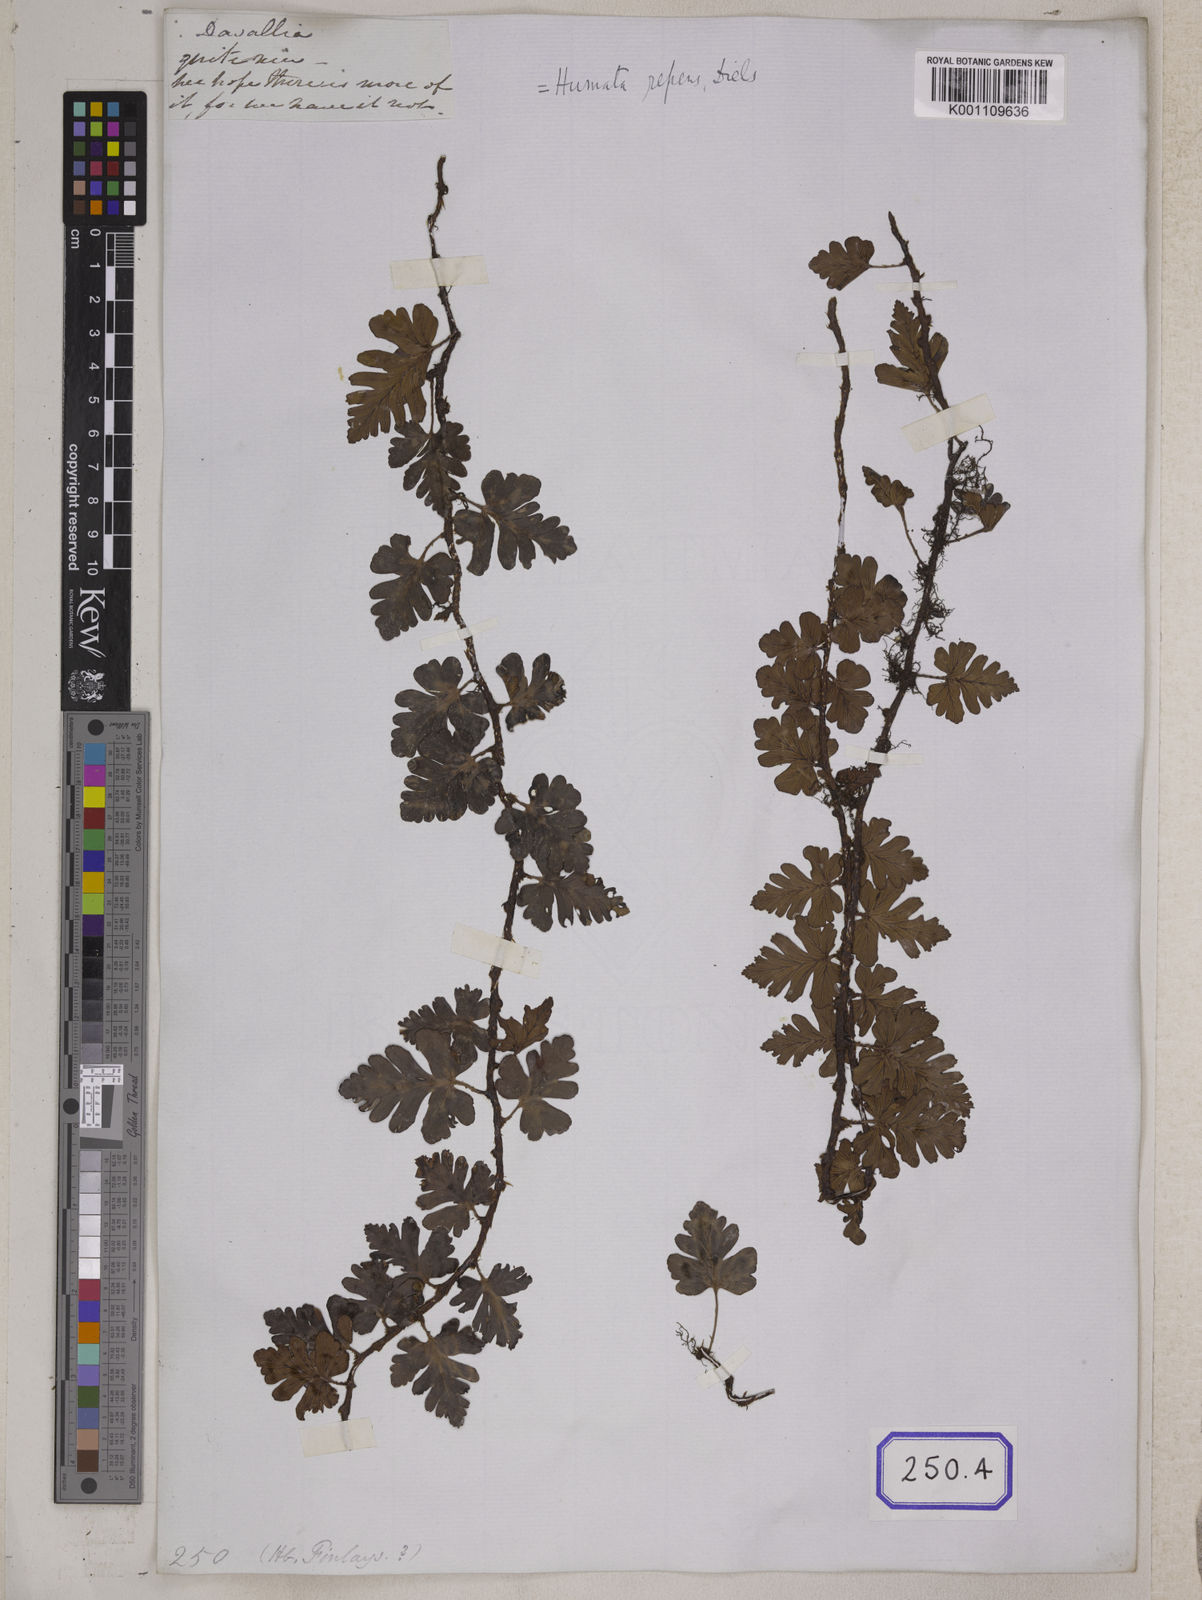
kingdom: Plantae
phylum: Tracheophyta
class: Polypodiopsida
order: Polypodiales
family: Davalliaceae
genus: Davallia
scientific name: Davallia repens
